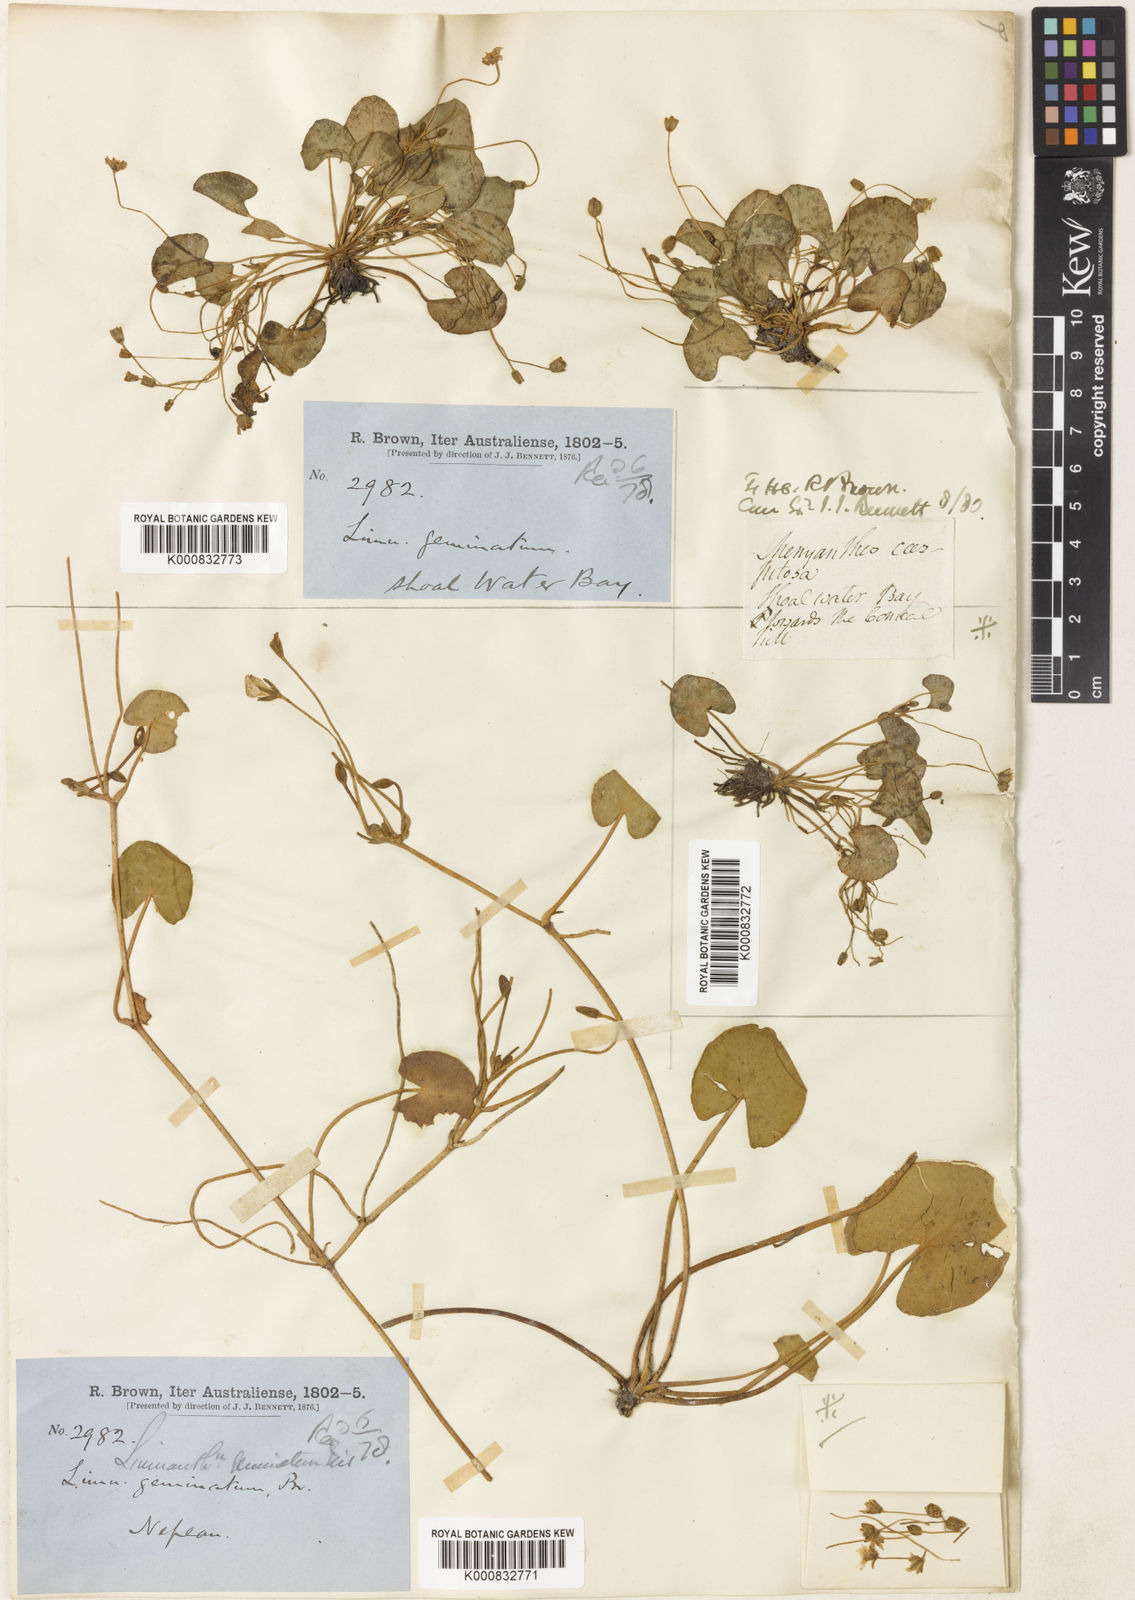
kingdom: Plantae
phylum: Tracheophyta
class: Magnoliopsida
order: Asterales
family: Menyanthaceae
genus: Nymphoides
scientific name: Nymphoides geminata
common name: Entire marshwort
